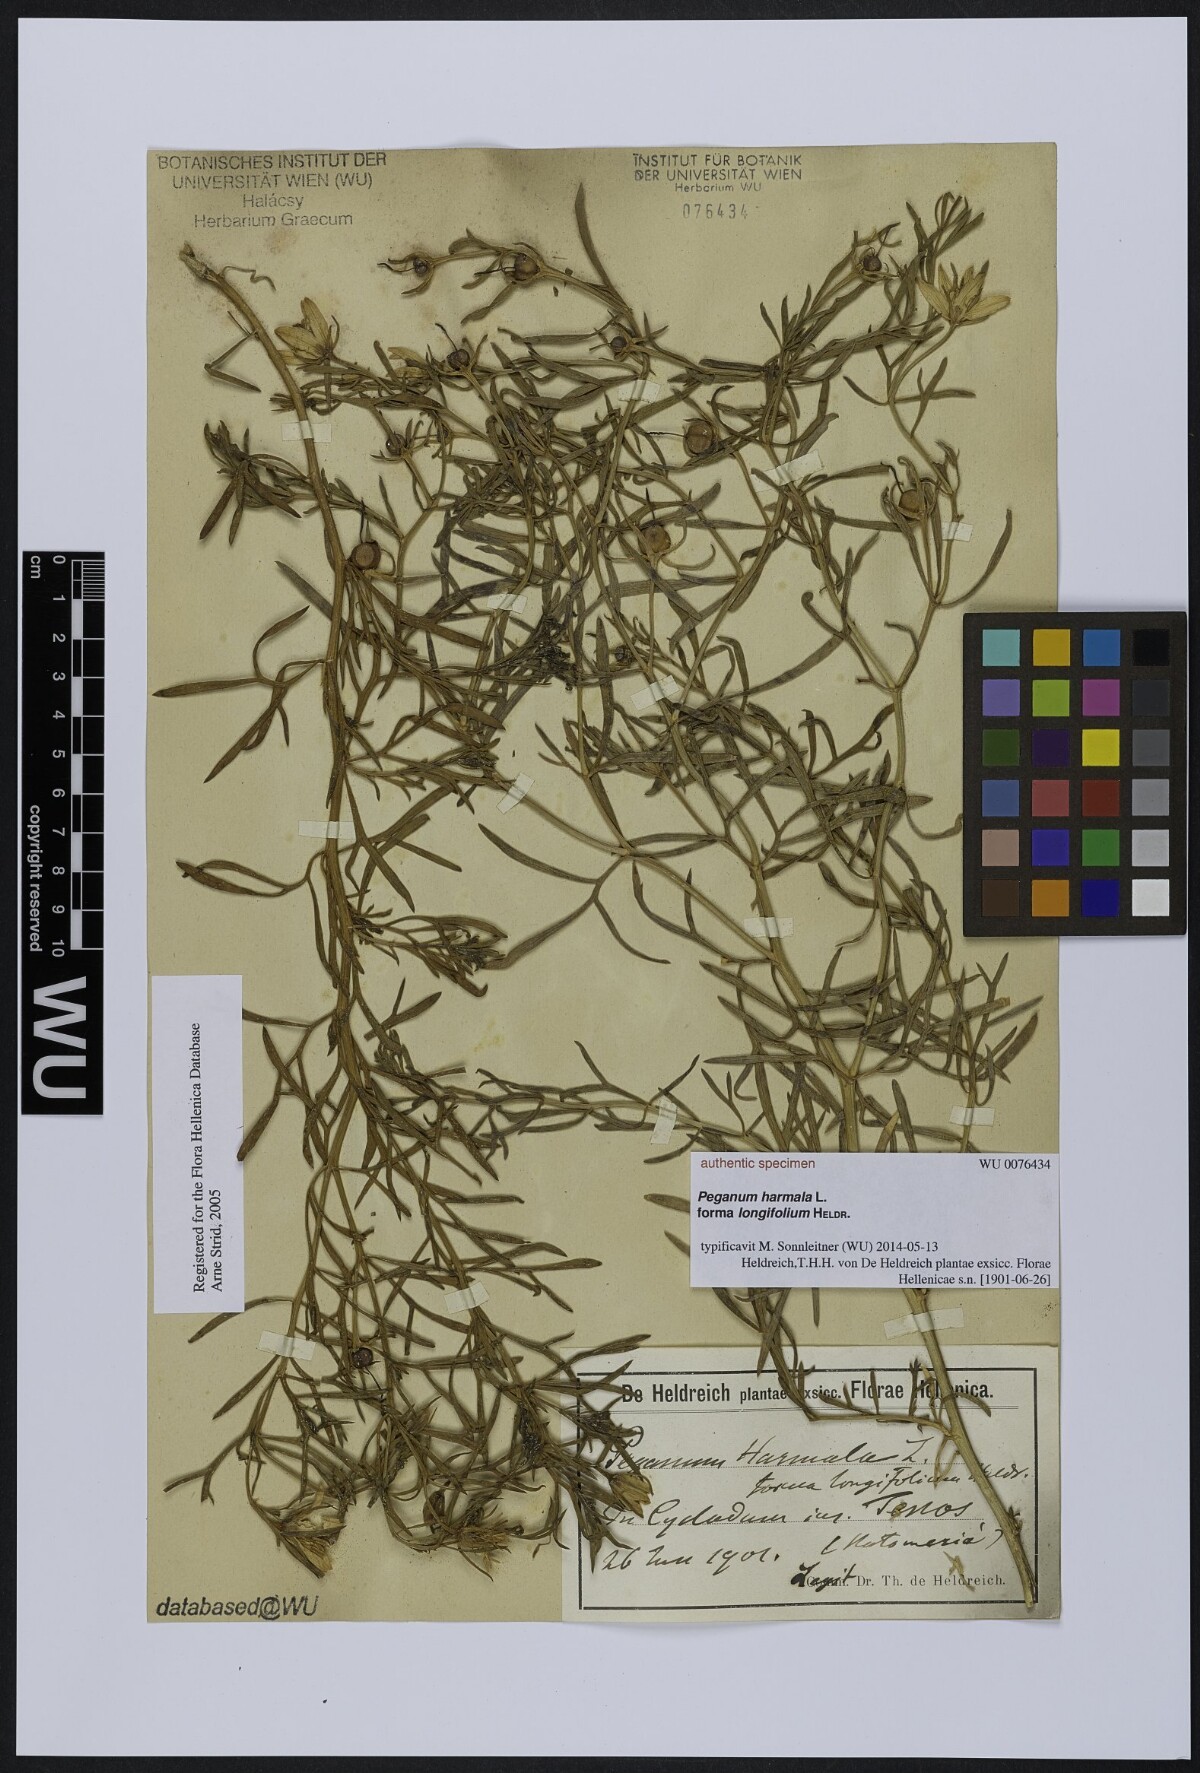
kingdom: Plantae
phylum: Tracheophyta
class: Magnoliopsida
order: Sapindales
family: Tetradiclidaceae
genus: Peganum
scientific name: Peganum harmala
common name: Harmal peganum
